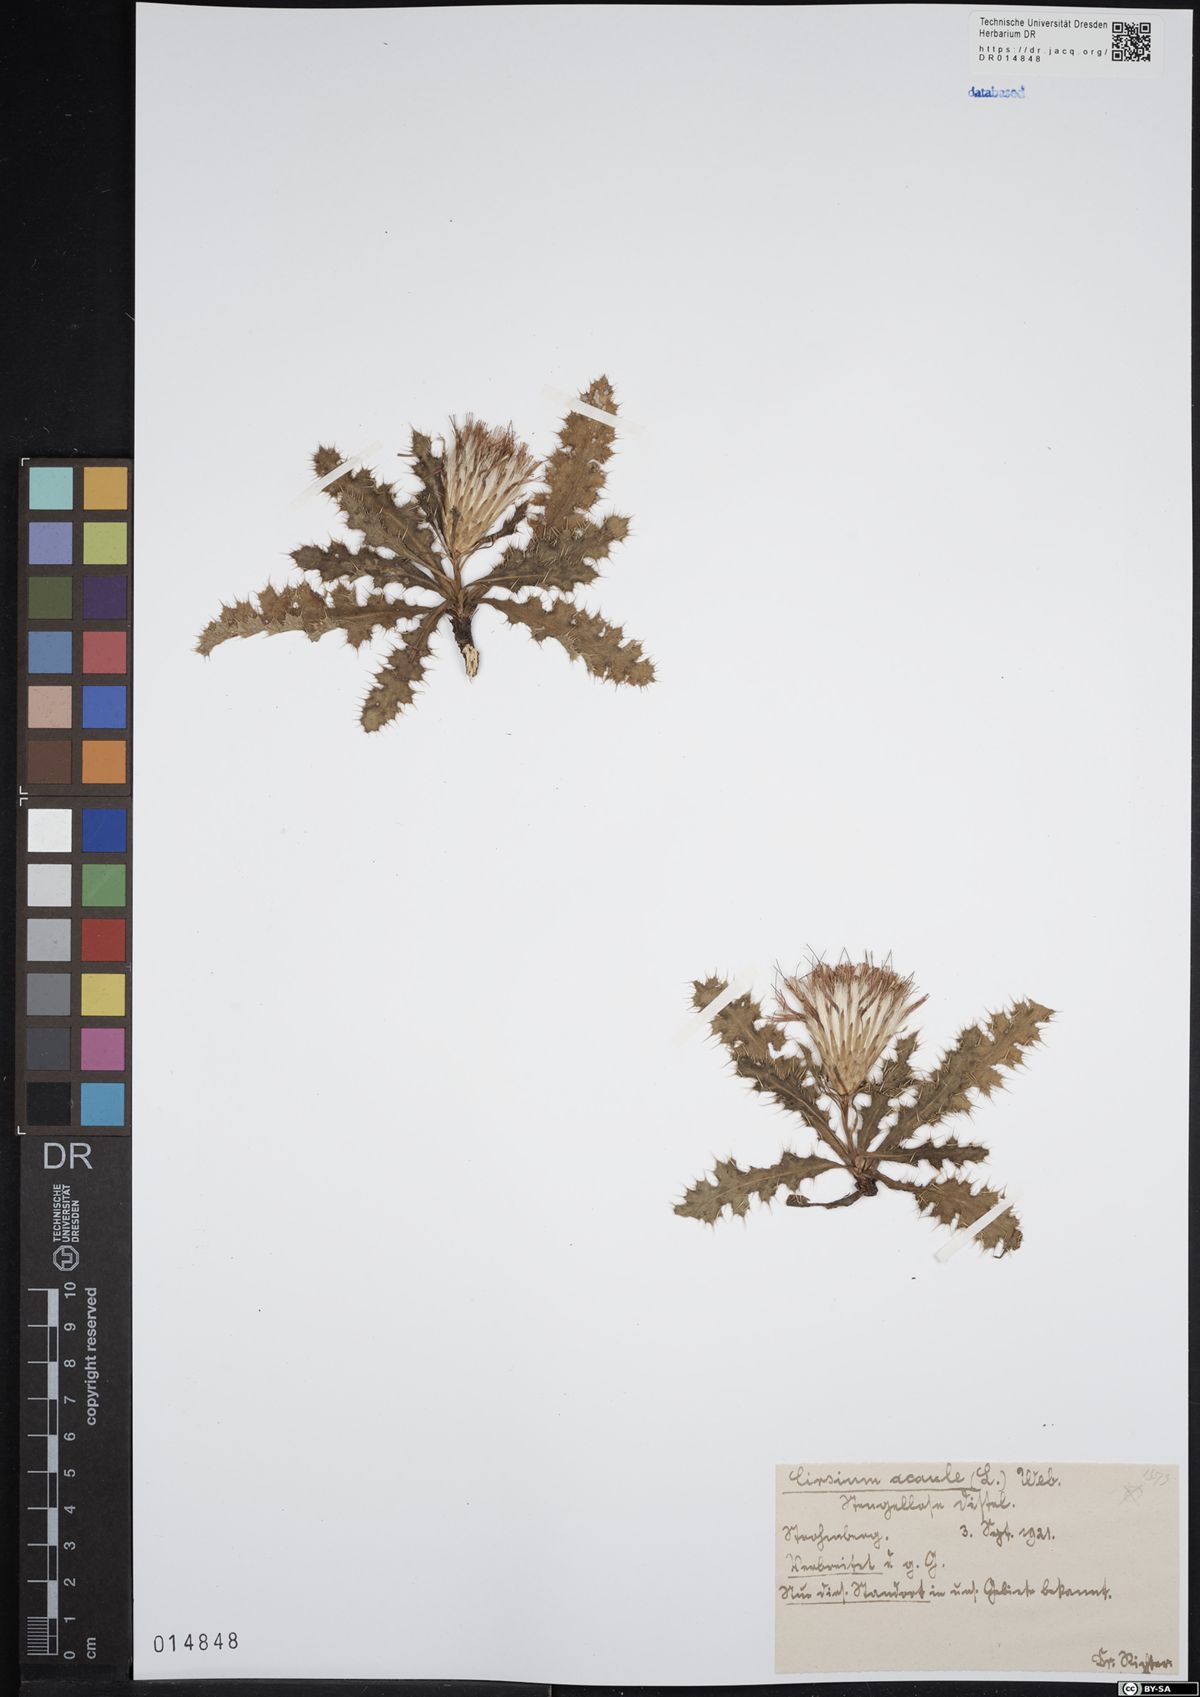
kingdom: Plantae
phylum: Tracheophyta
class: Magnoliopsida
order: Asterales
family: Asteraceae
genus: Cirsium
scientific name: Cirsium acaule
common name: Dwarf thistle
